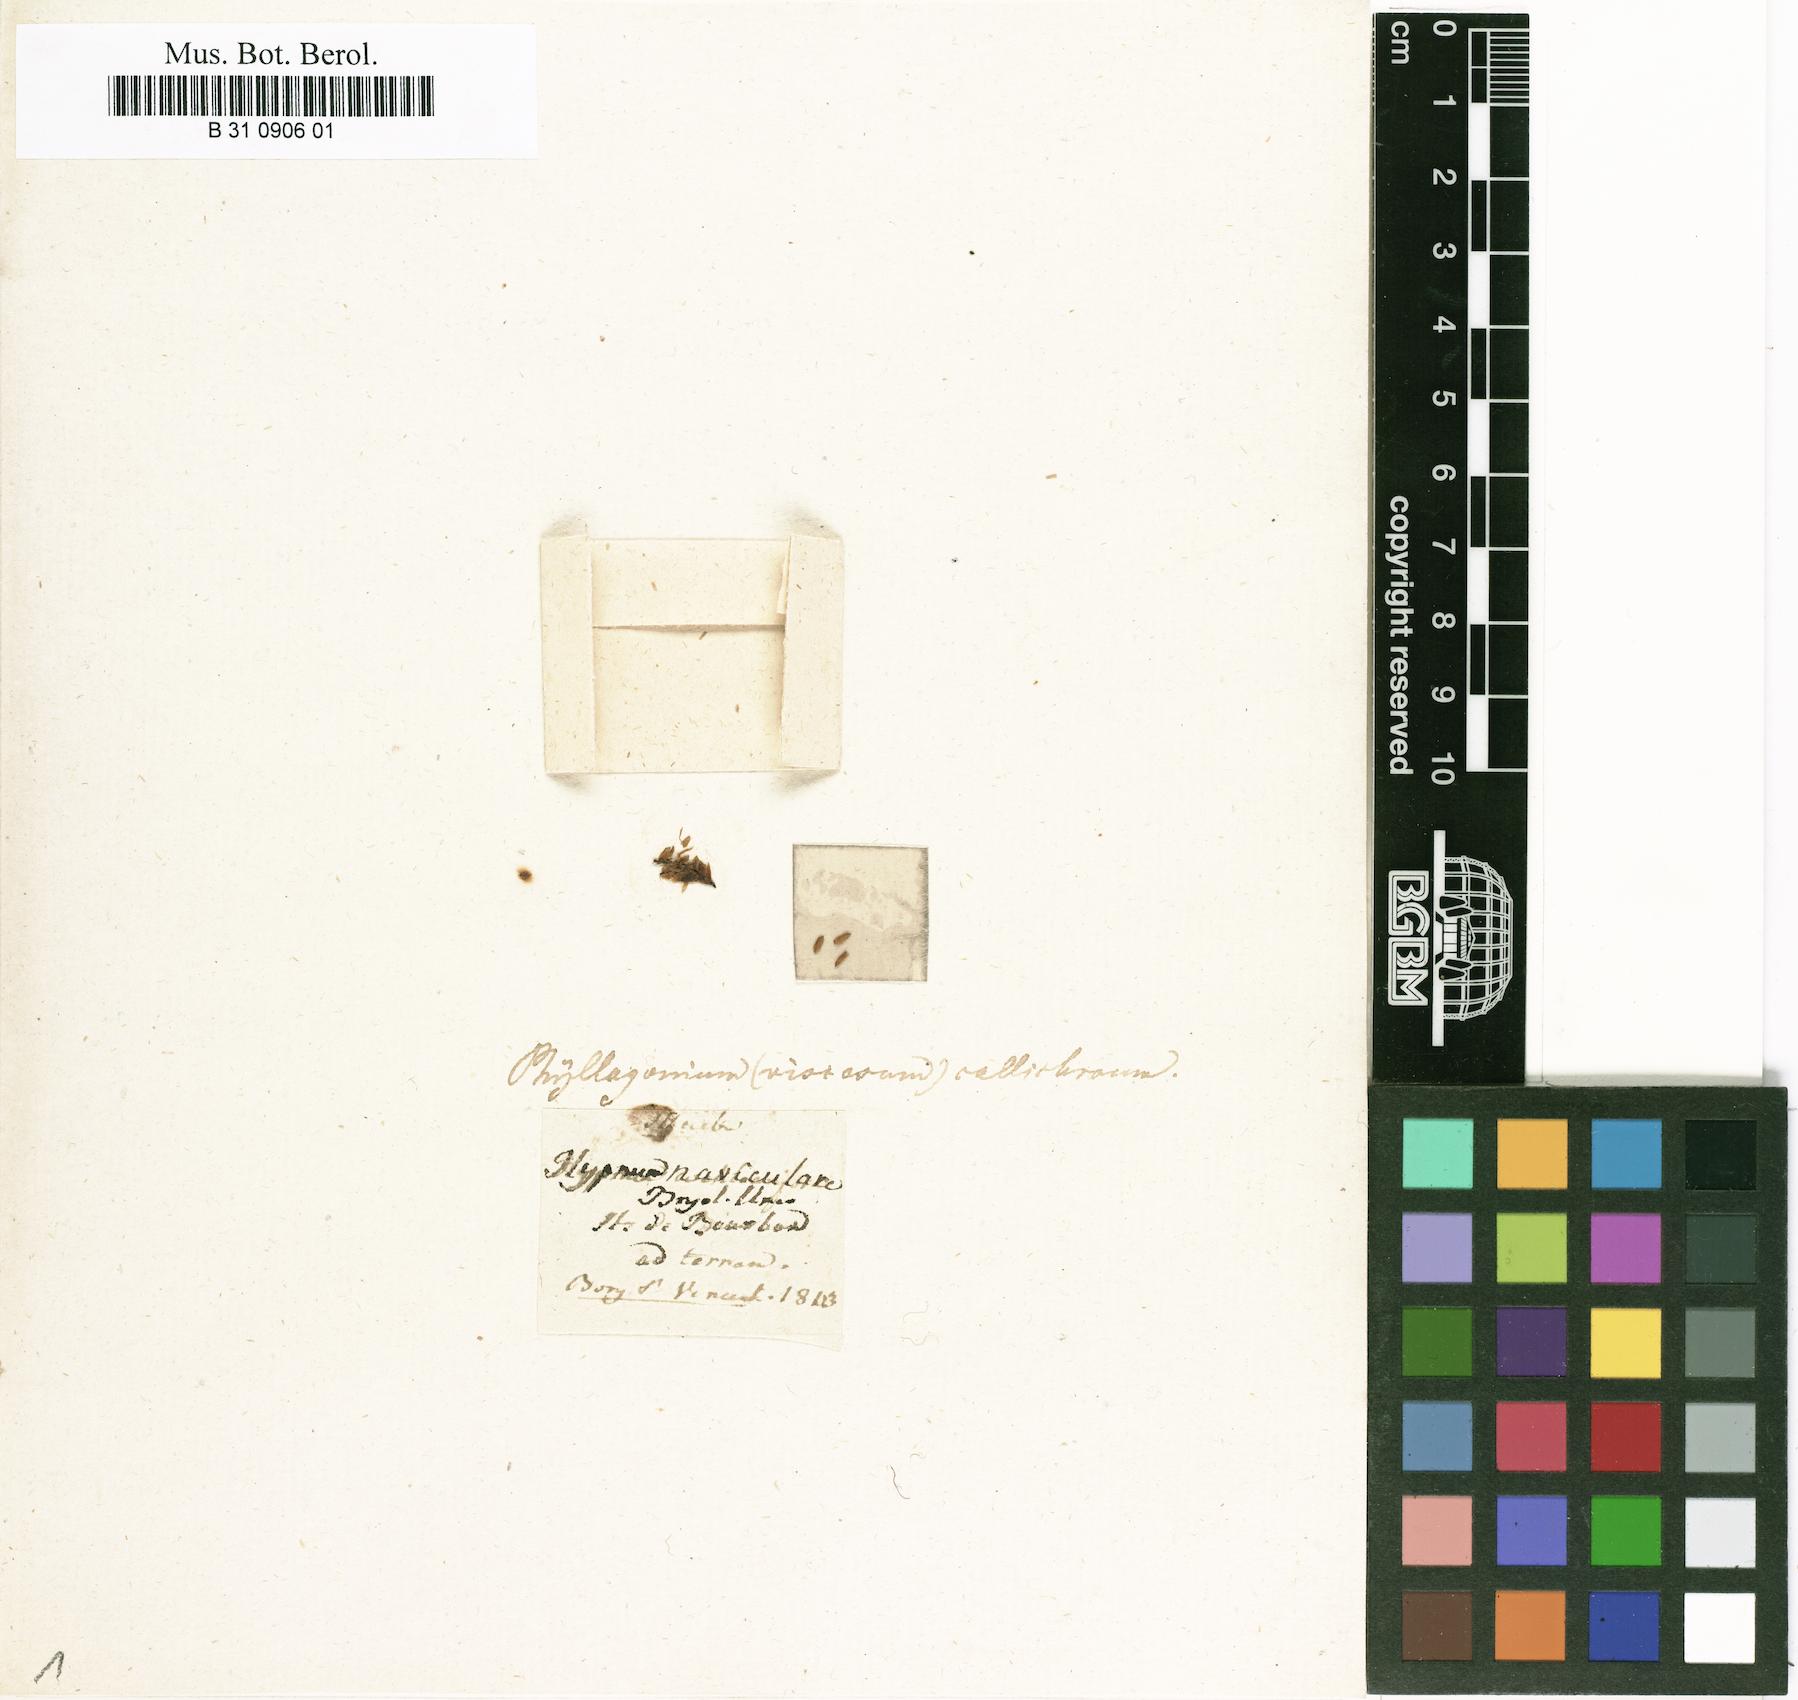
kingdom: Plantae
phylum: Bryophyta
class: Bryopsida
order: Hypnales
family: Phyllogoniaceae
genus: Phyllogonium
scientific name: Phyllogonium viscosum
